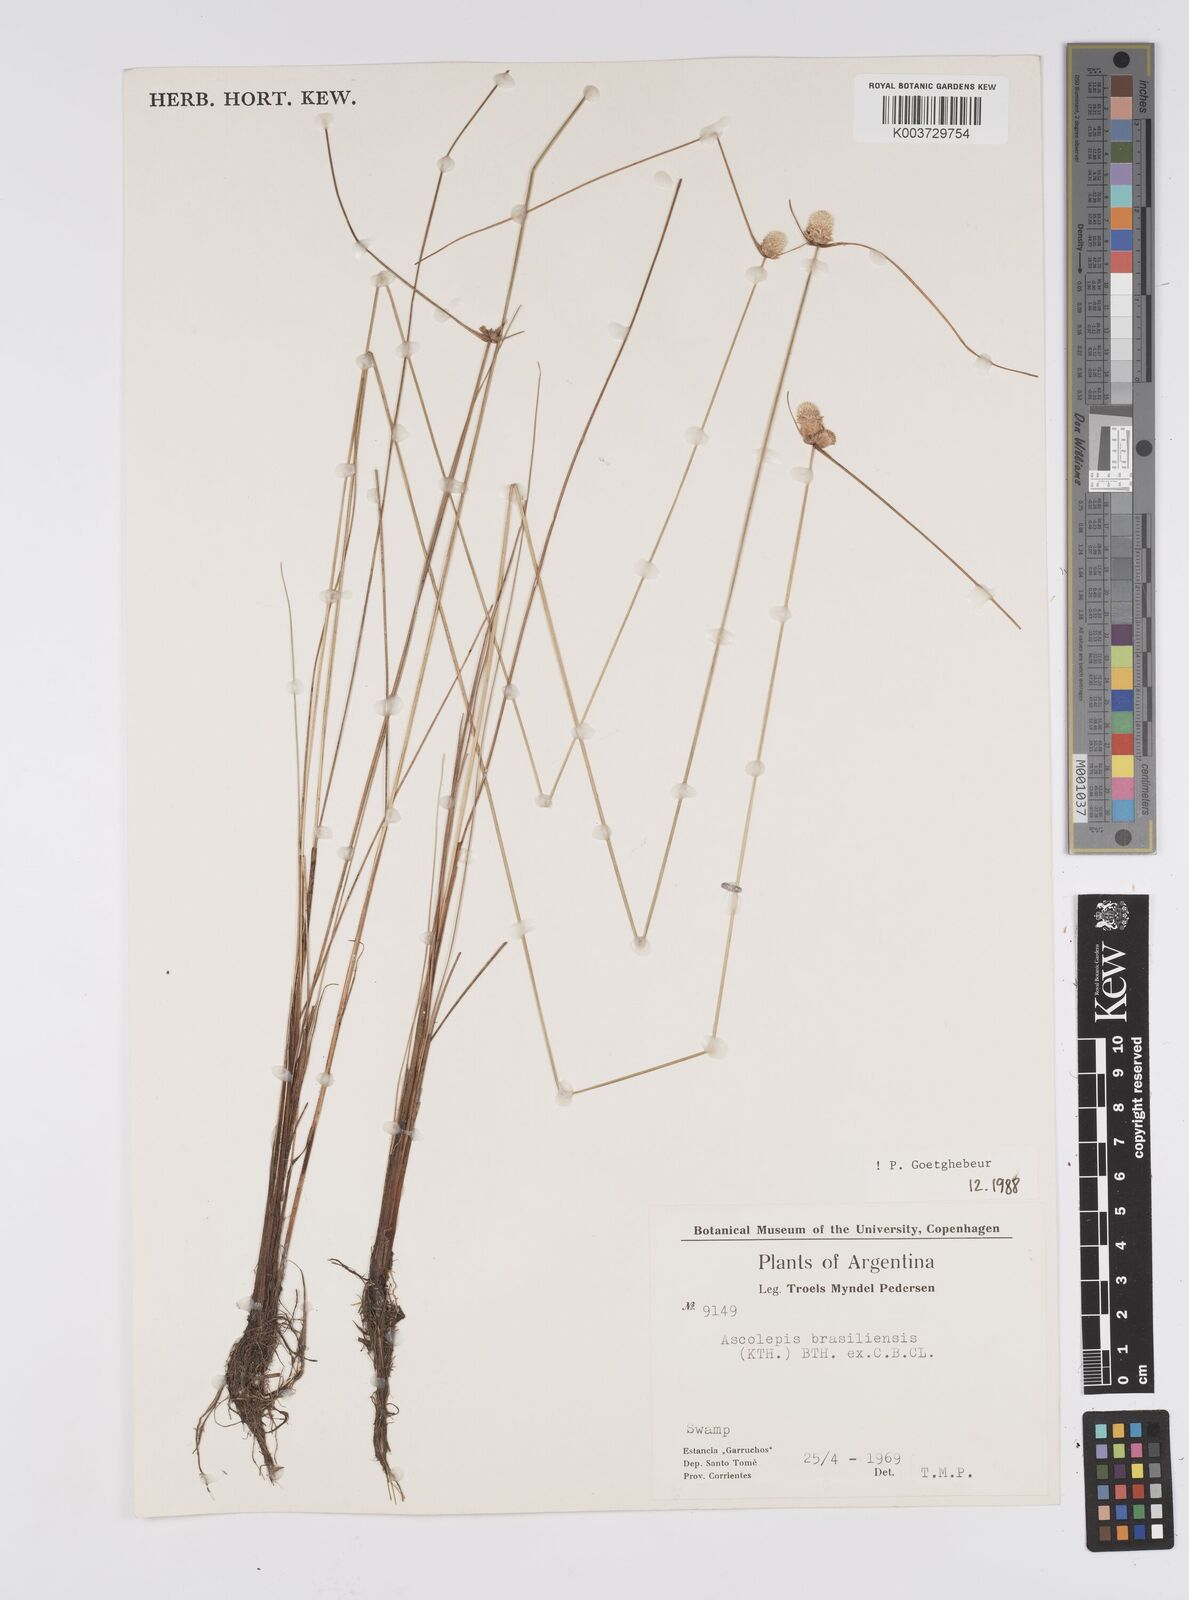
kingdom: Plantae
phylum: Tracheophyta
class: Liliopsida
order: Poales
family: Cyperaceae
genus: Cyperus
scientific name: Cyperus brasiliensis
